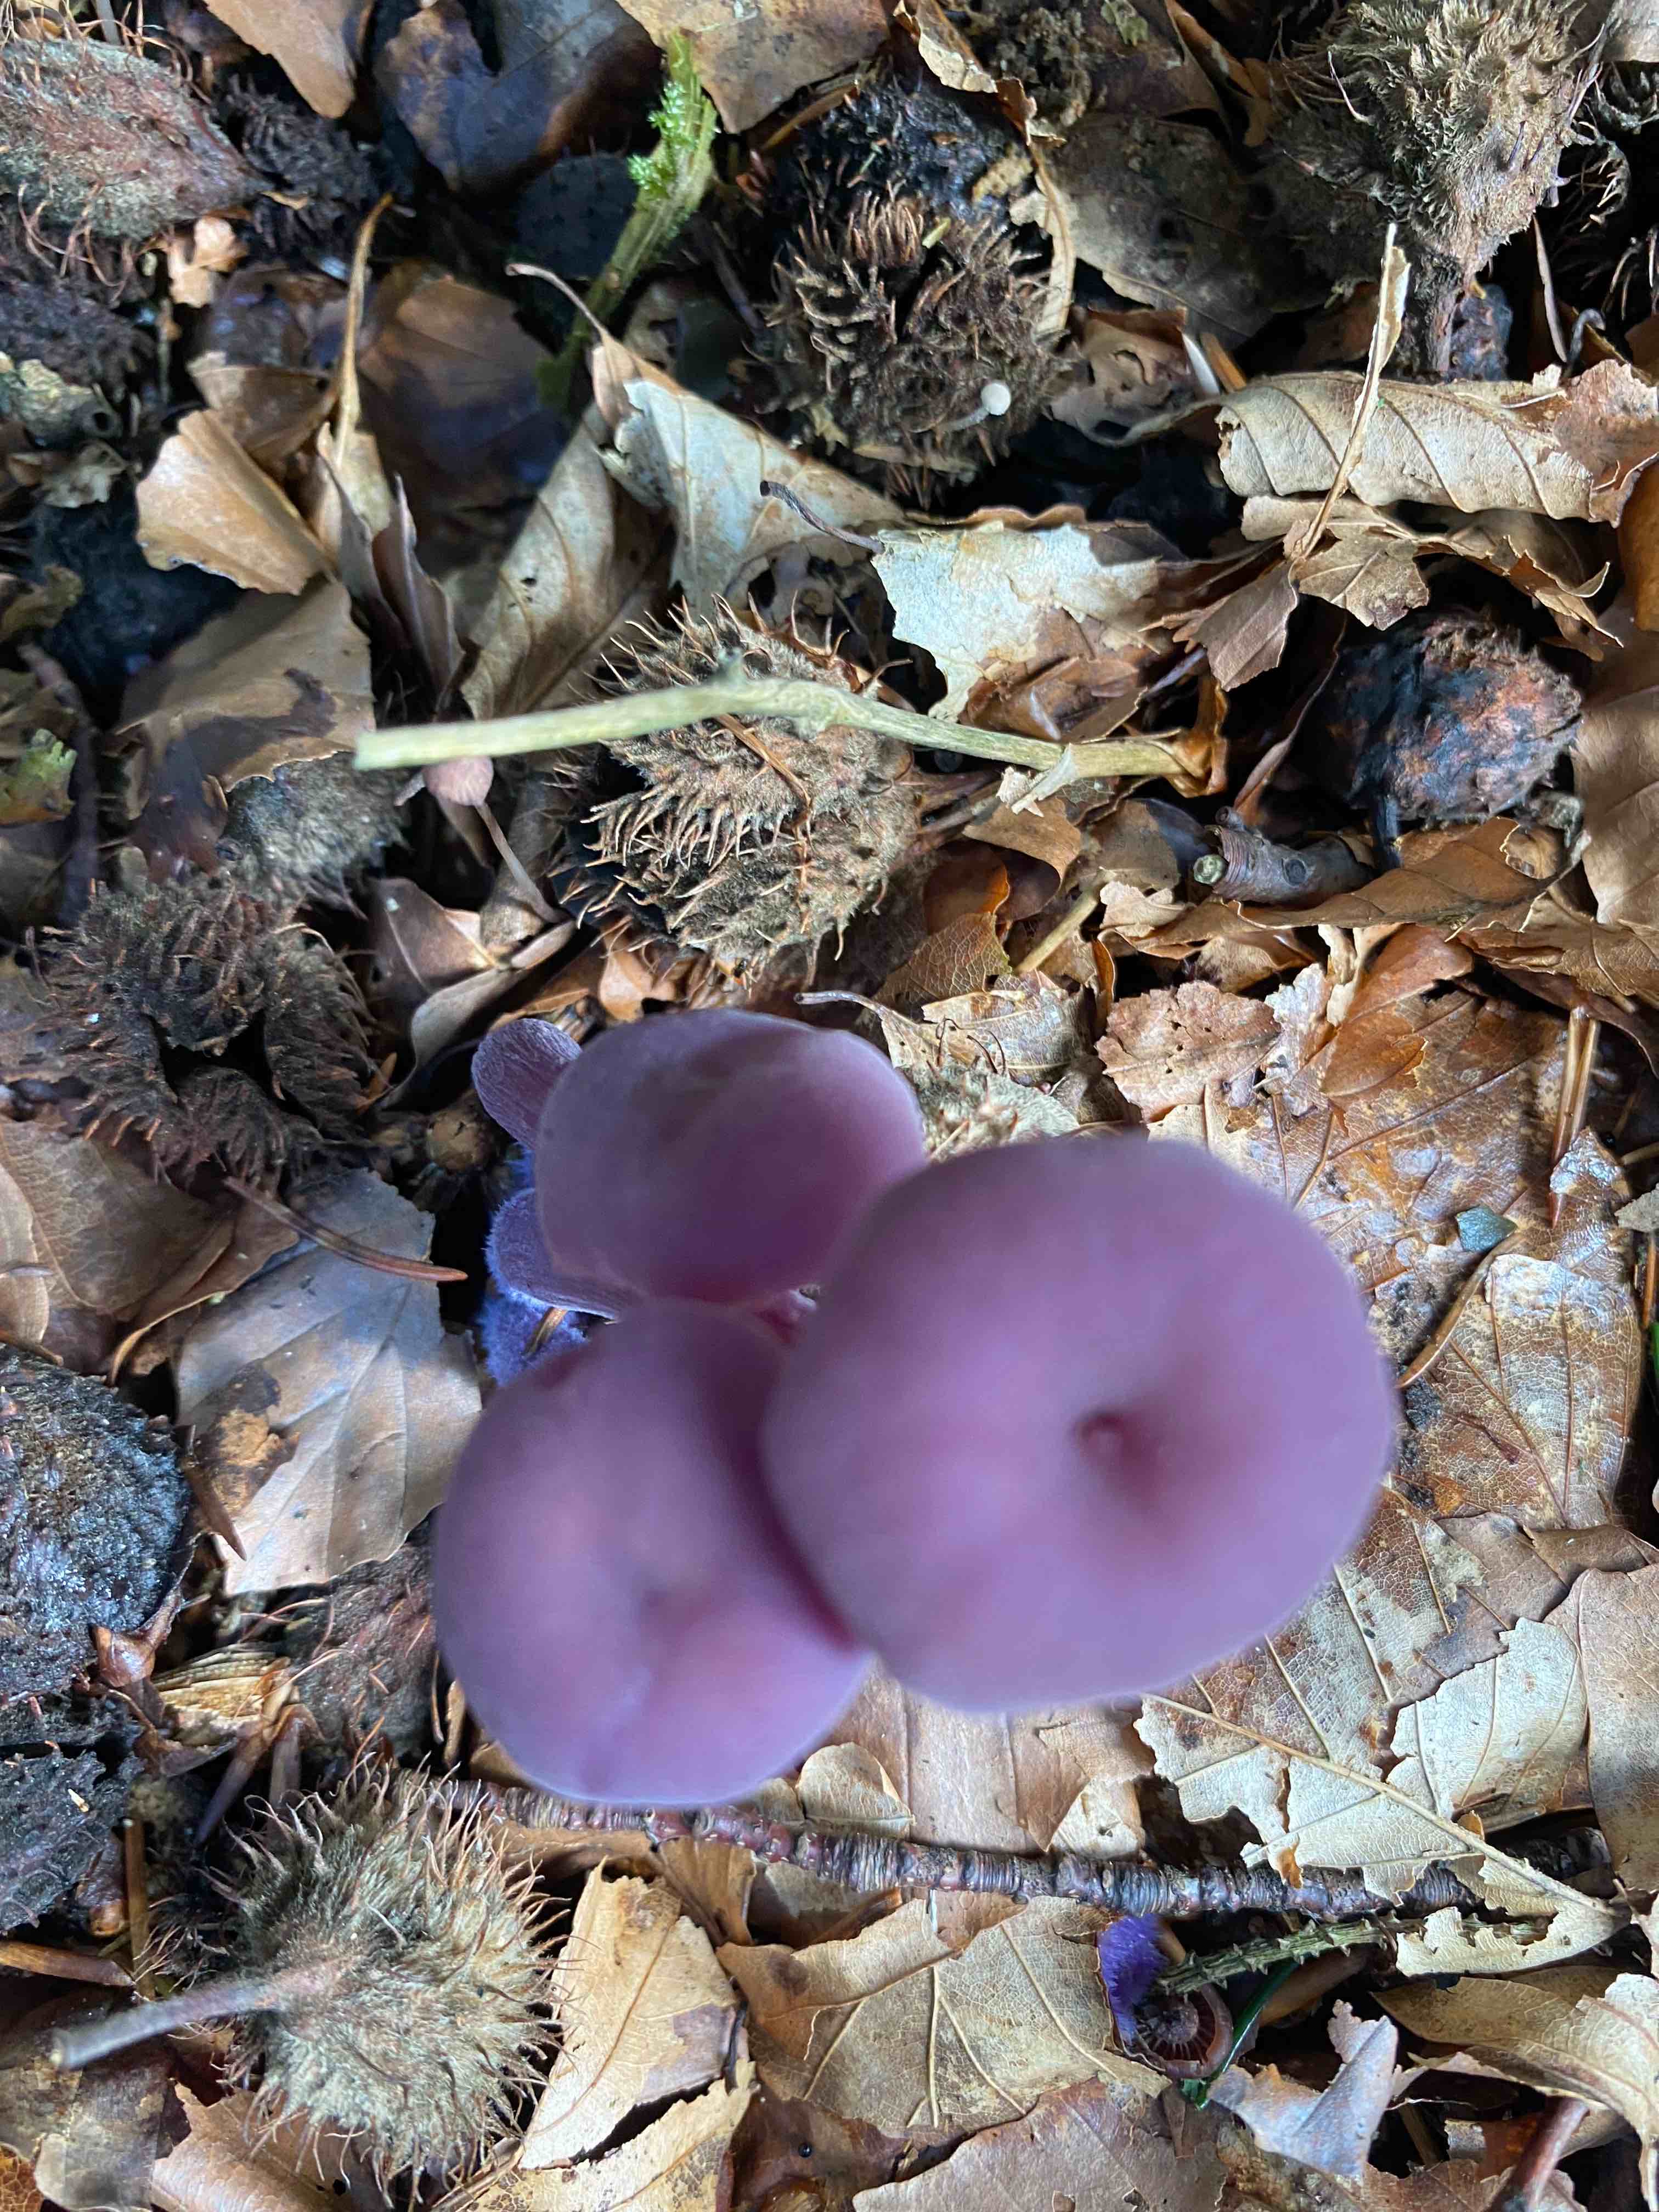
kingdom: Fungi
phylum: Basidiomycota
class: Agaricomycetes
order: Agaricales
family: Hydnangiaceae
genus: Laccaria
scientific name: Laccaria amethystina
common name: violet ametysthat
